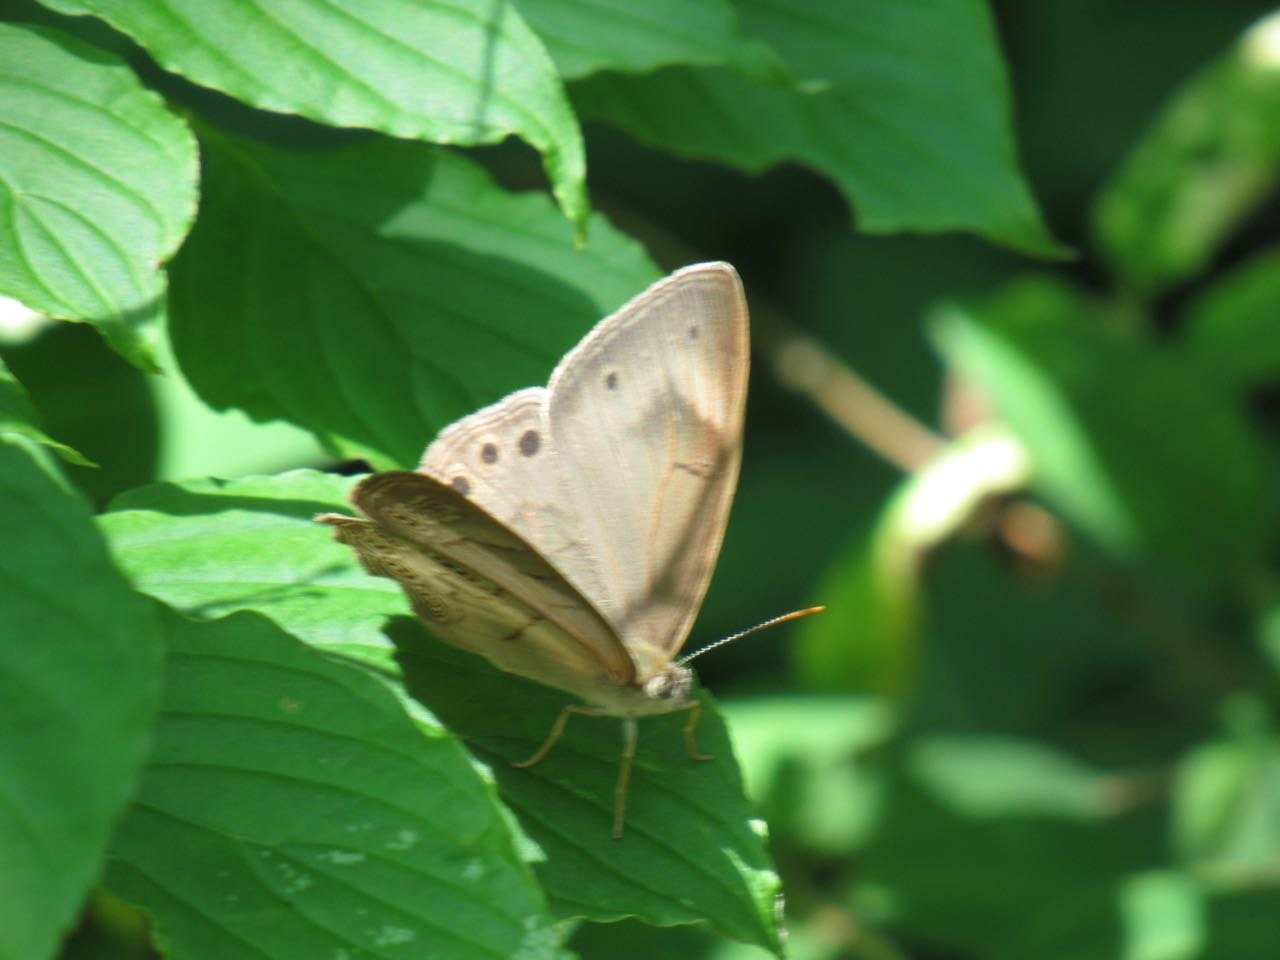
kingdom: Animalia
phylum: Arthropoda
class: Insecta
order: Lepidoptera
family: Nymphalidae
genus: Lethe
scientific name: Lethe eurydice
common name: Appalachian Eyed Brown
